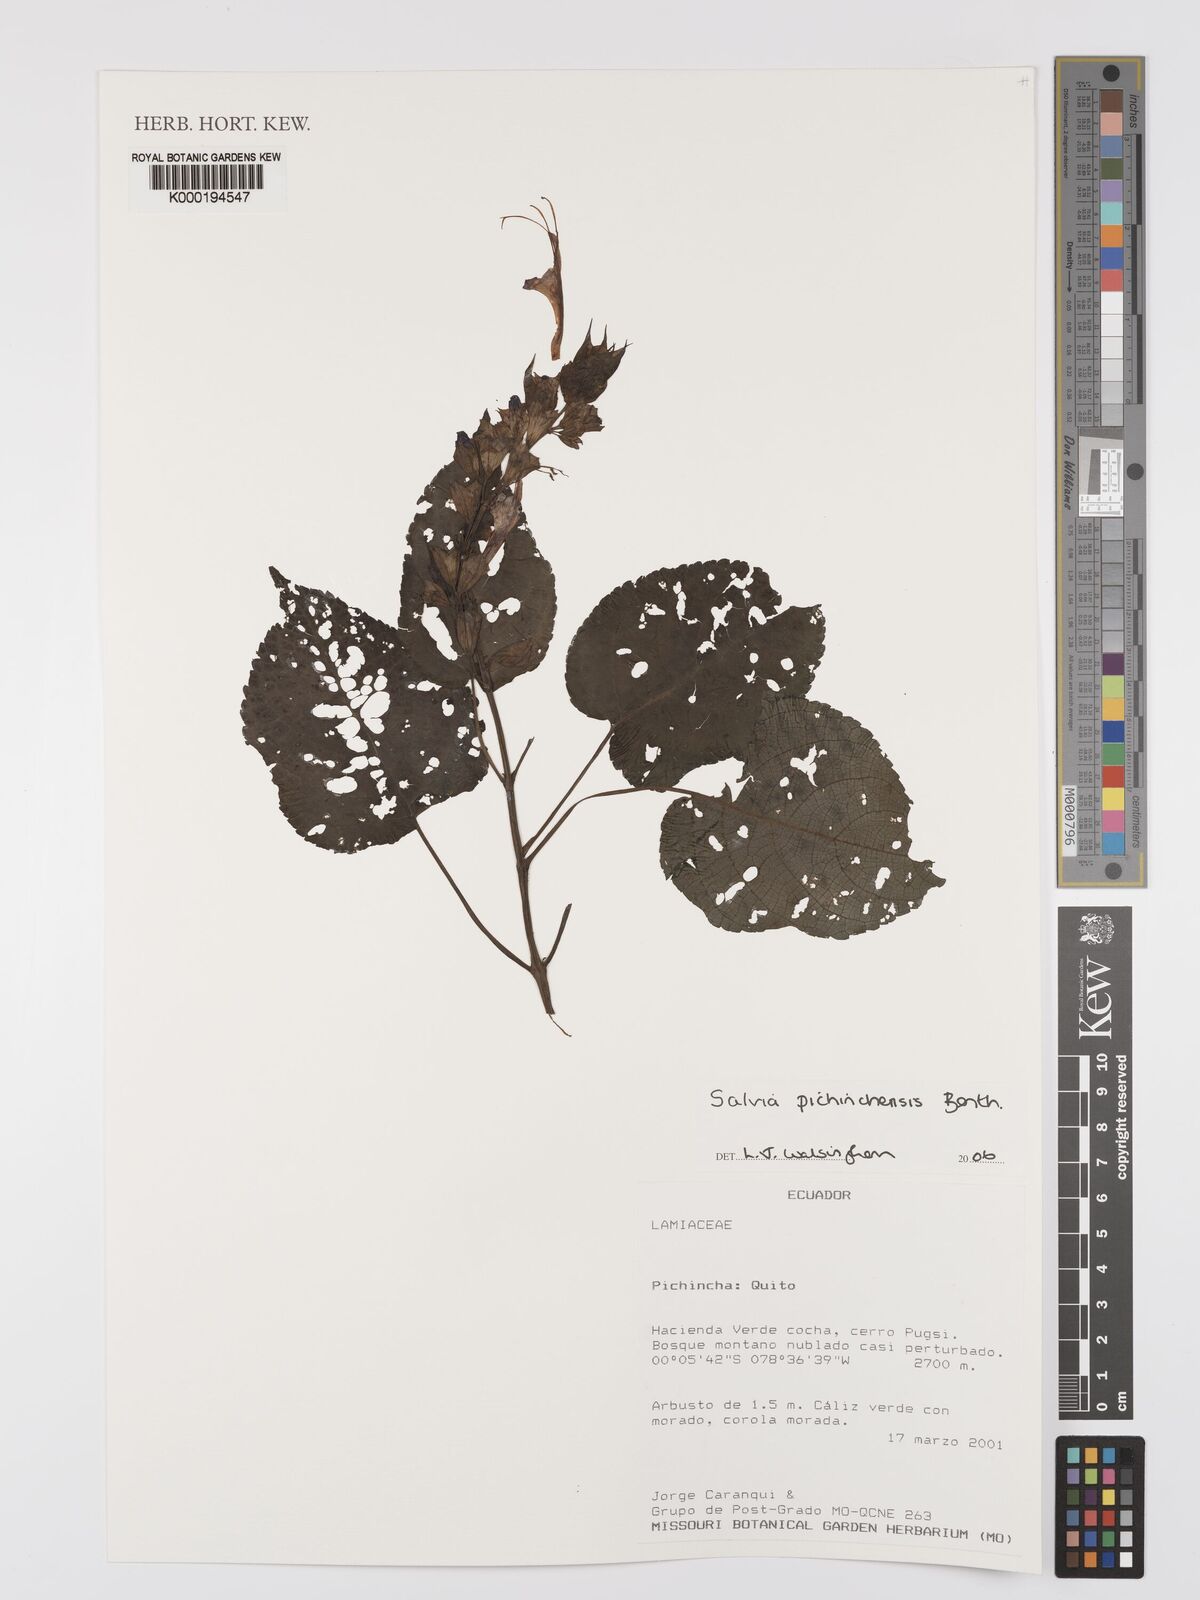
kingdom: Plantae
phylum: Tracheophyta
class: Magnoliopsida
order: Lamiales
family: Lamiaceae
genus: Salvia
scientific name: Salvia pichinchensis
